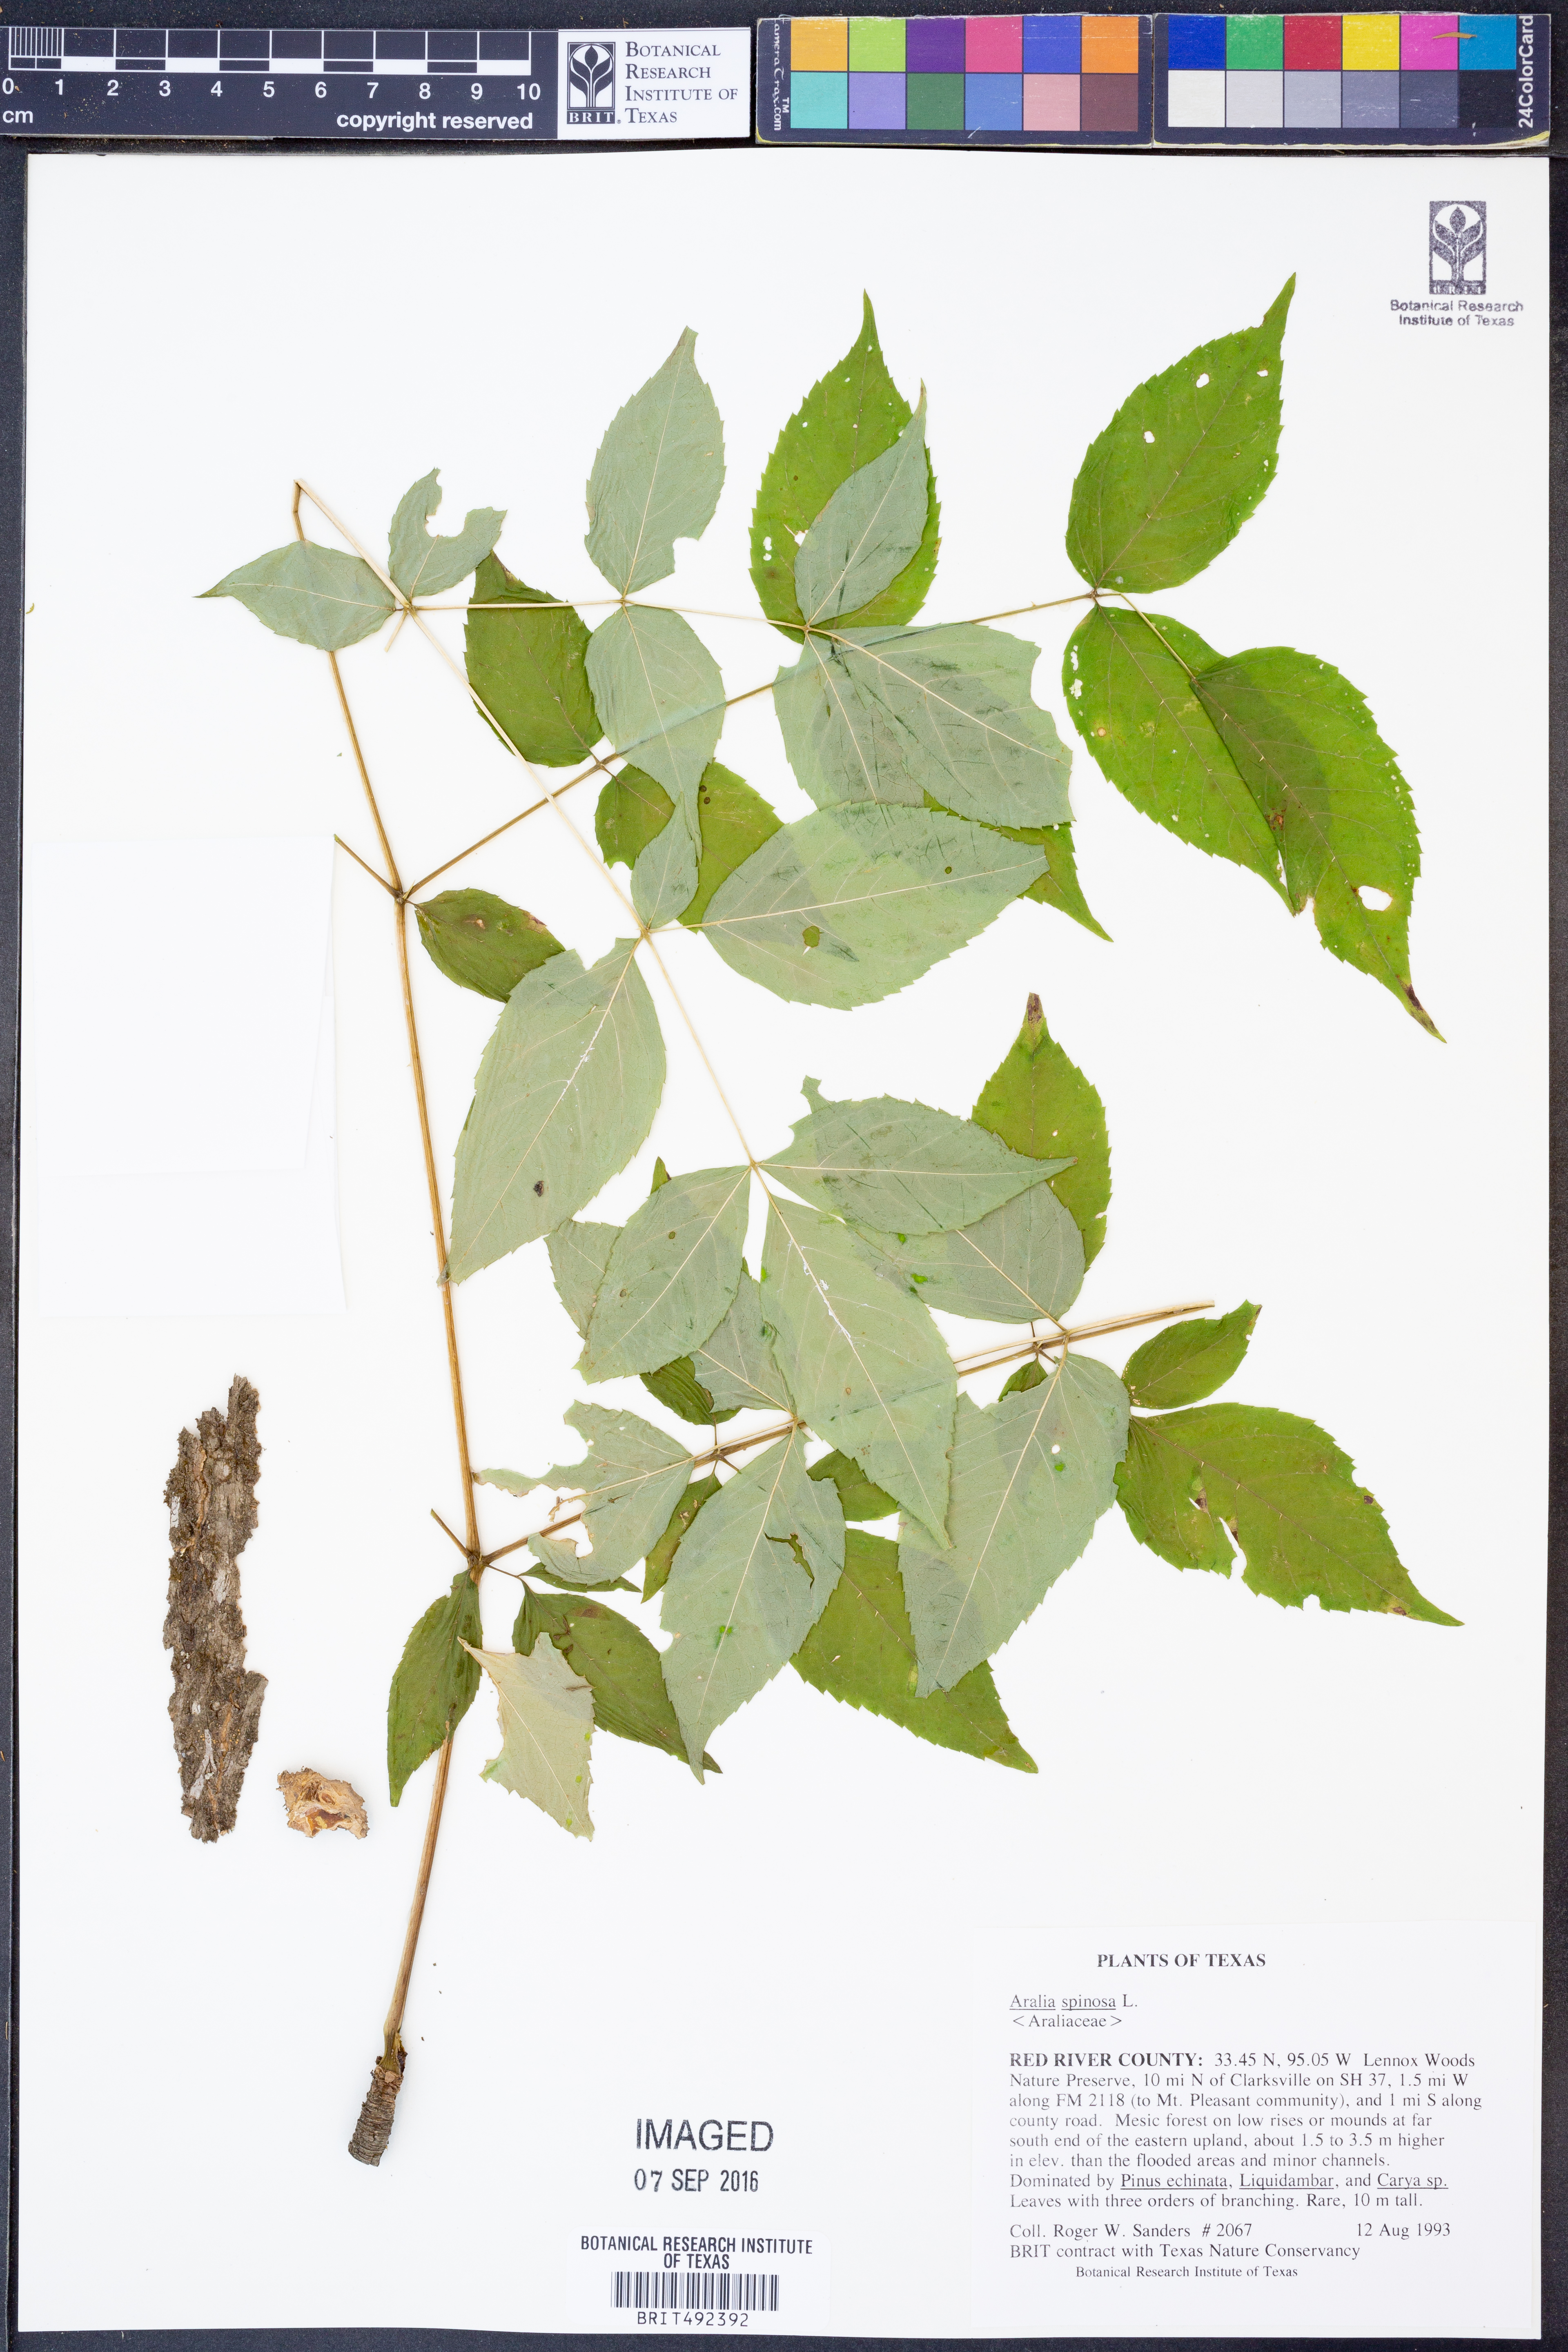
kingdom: Plantae
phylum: Tracheophyta
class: Magnoliopsida
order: Apiales
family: Araliaceae
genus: Aralia
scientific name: Aralia spinosa
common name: Hercules'-club
